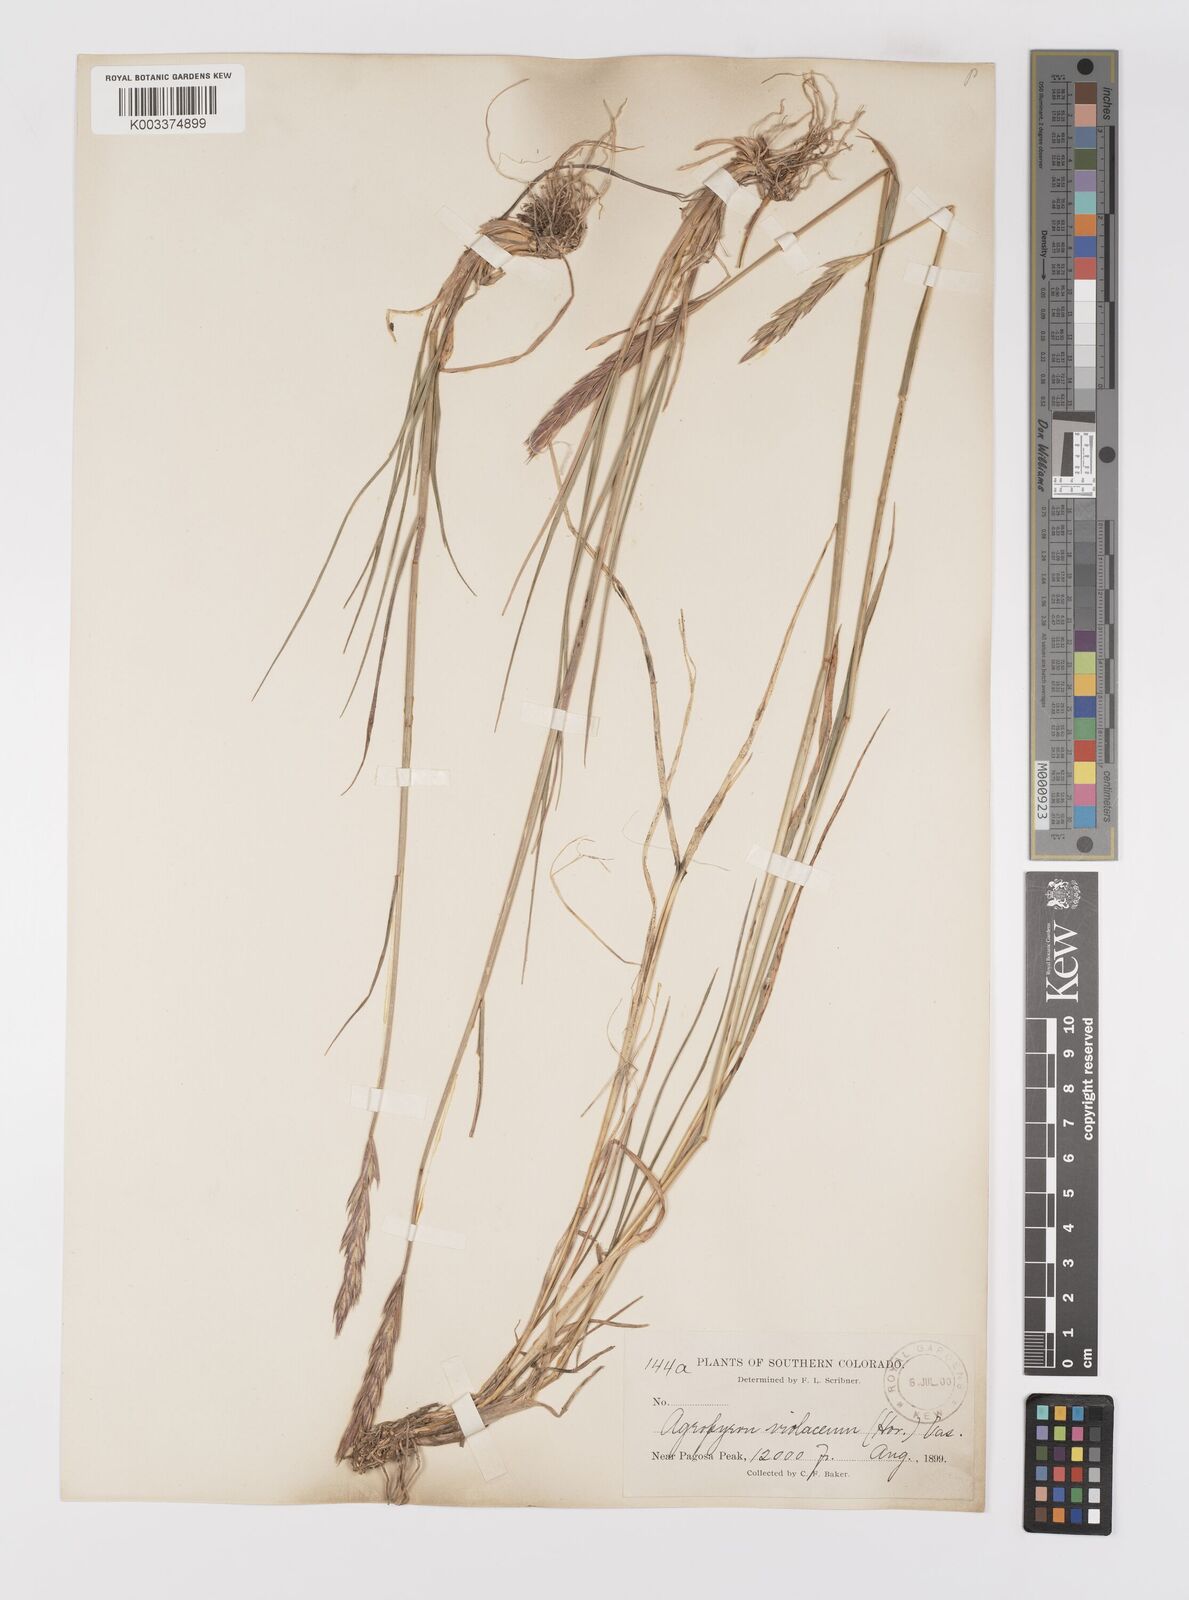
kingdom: Plantae
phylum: Tracheophyta
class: Liliopsida
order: Poales
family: Poaceae
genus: Elymus
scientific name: Elymus violaceus
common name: Arctic wheatgrass
